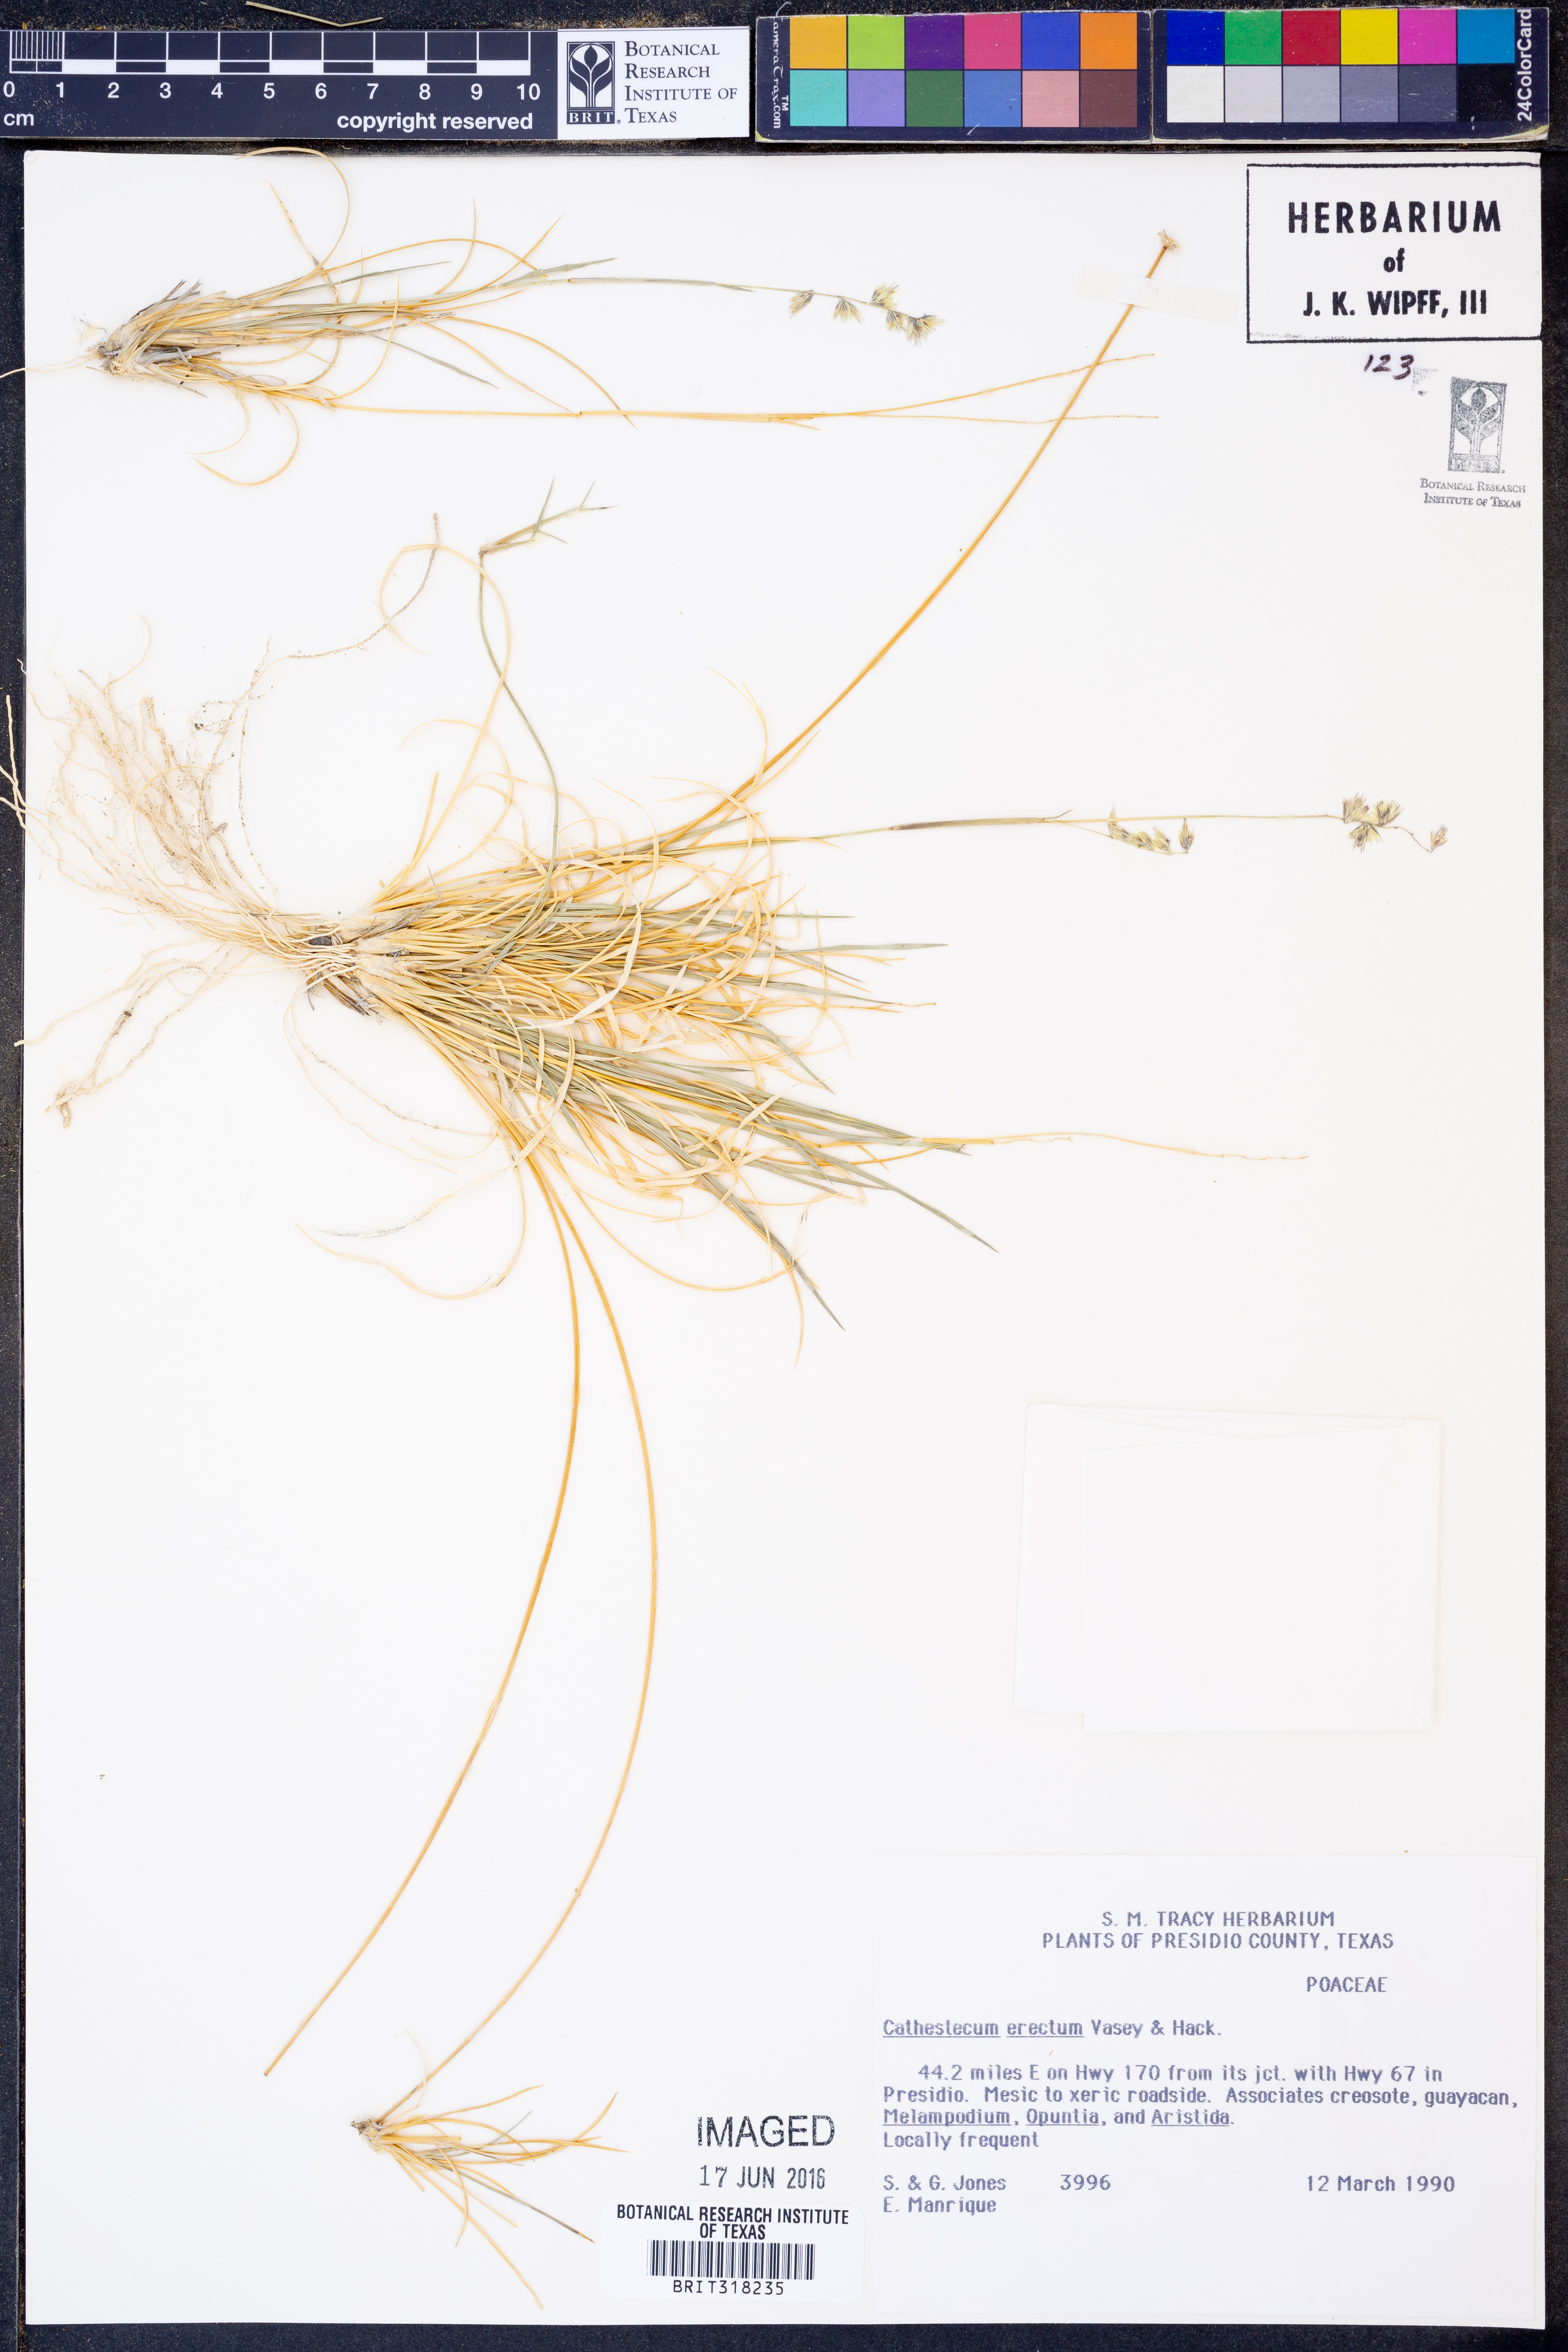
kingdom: Plantae
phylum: Tracheophyta
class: Liliopsida
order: Poales
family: Poaceae
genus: Bouteloua
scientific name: Bouteloua erecta
